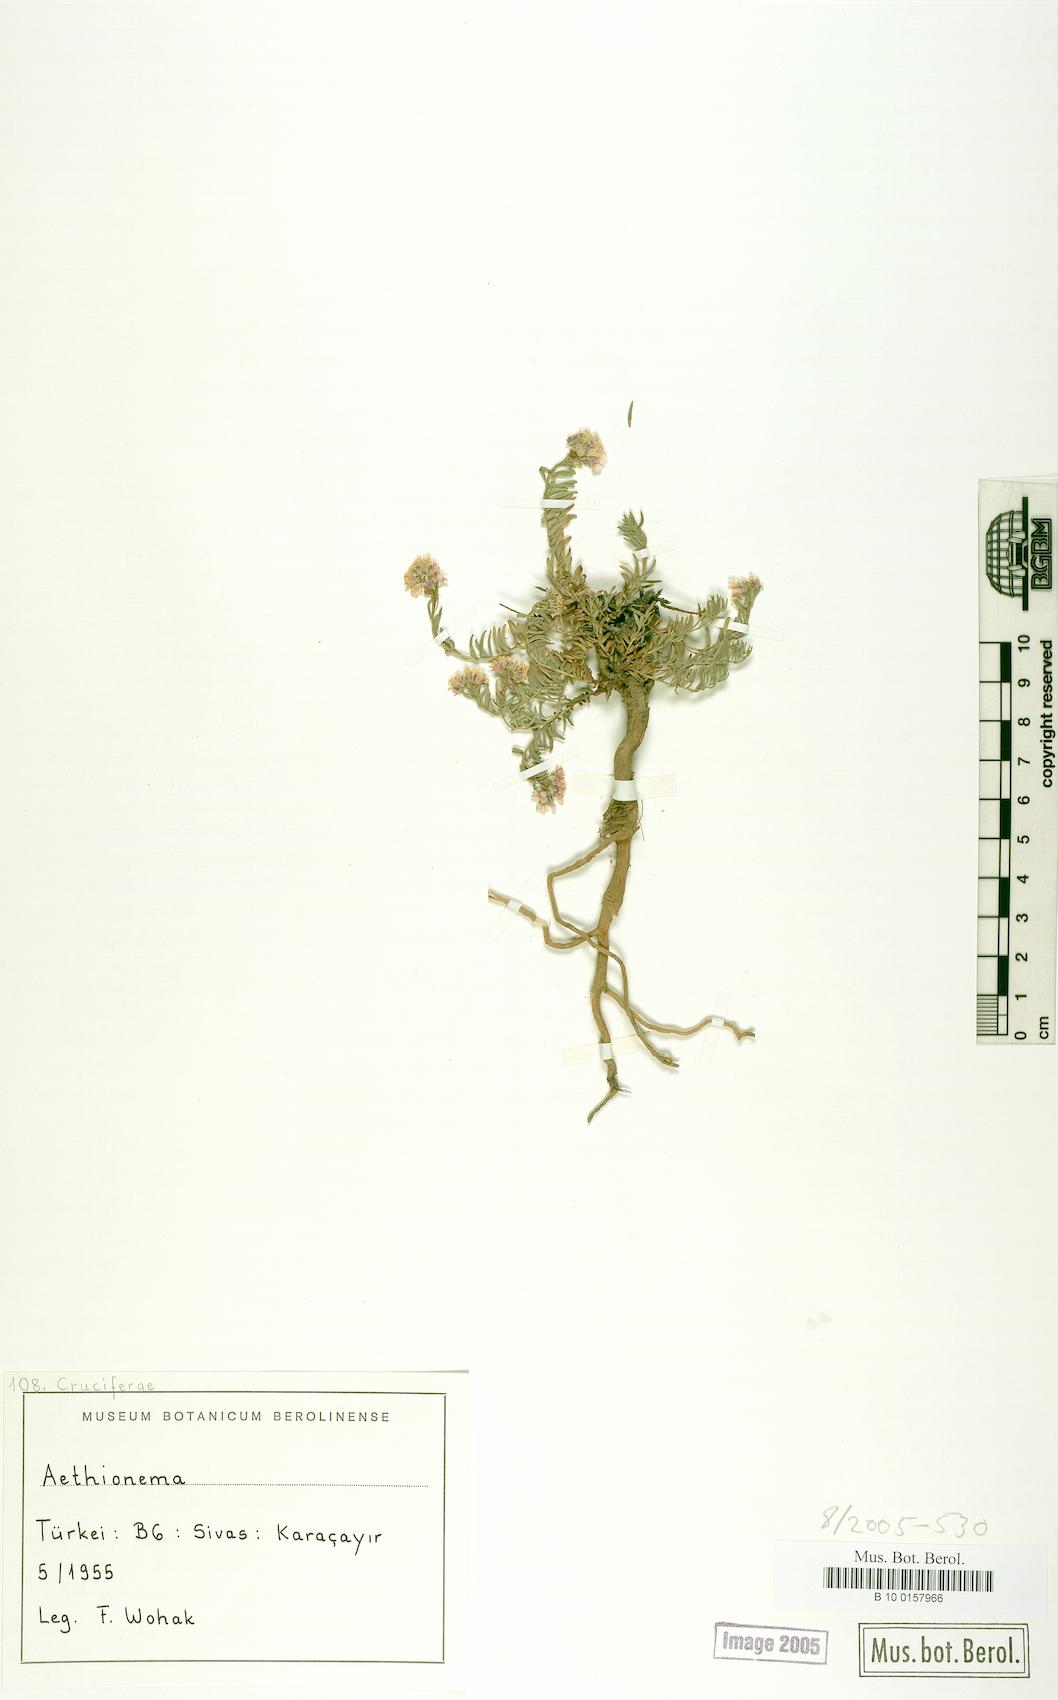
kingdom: Plantae
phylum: Tracheophyta
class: Magnoliopsida
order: Brassicales
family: Brassicaceae
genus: Aethionema
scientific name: Aethionema
